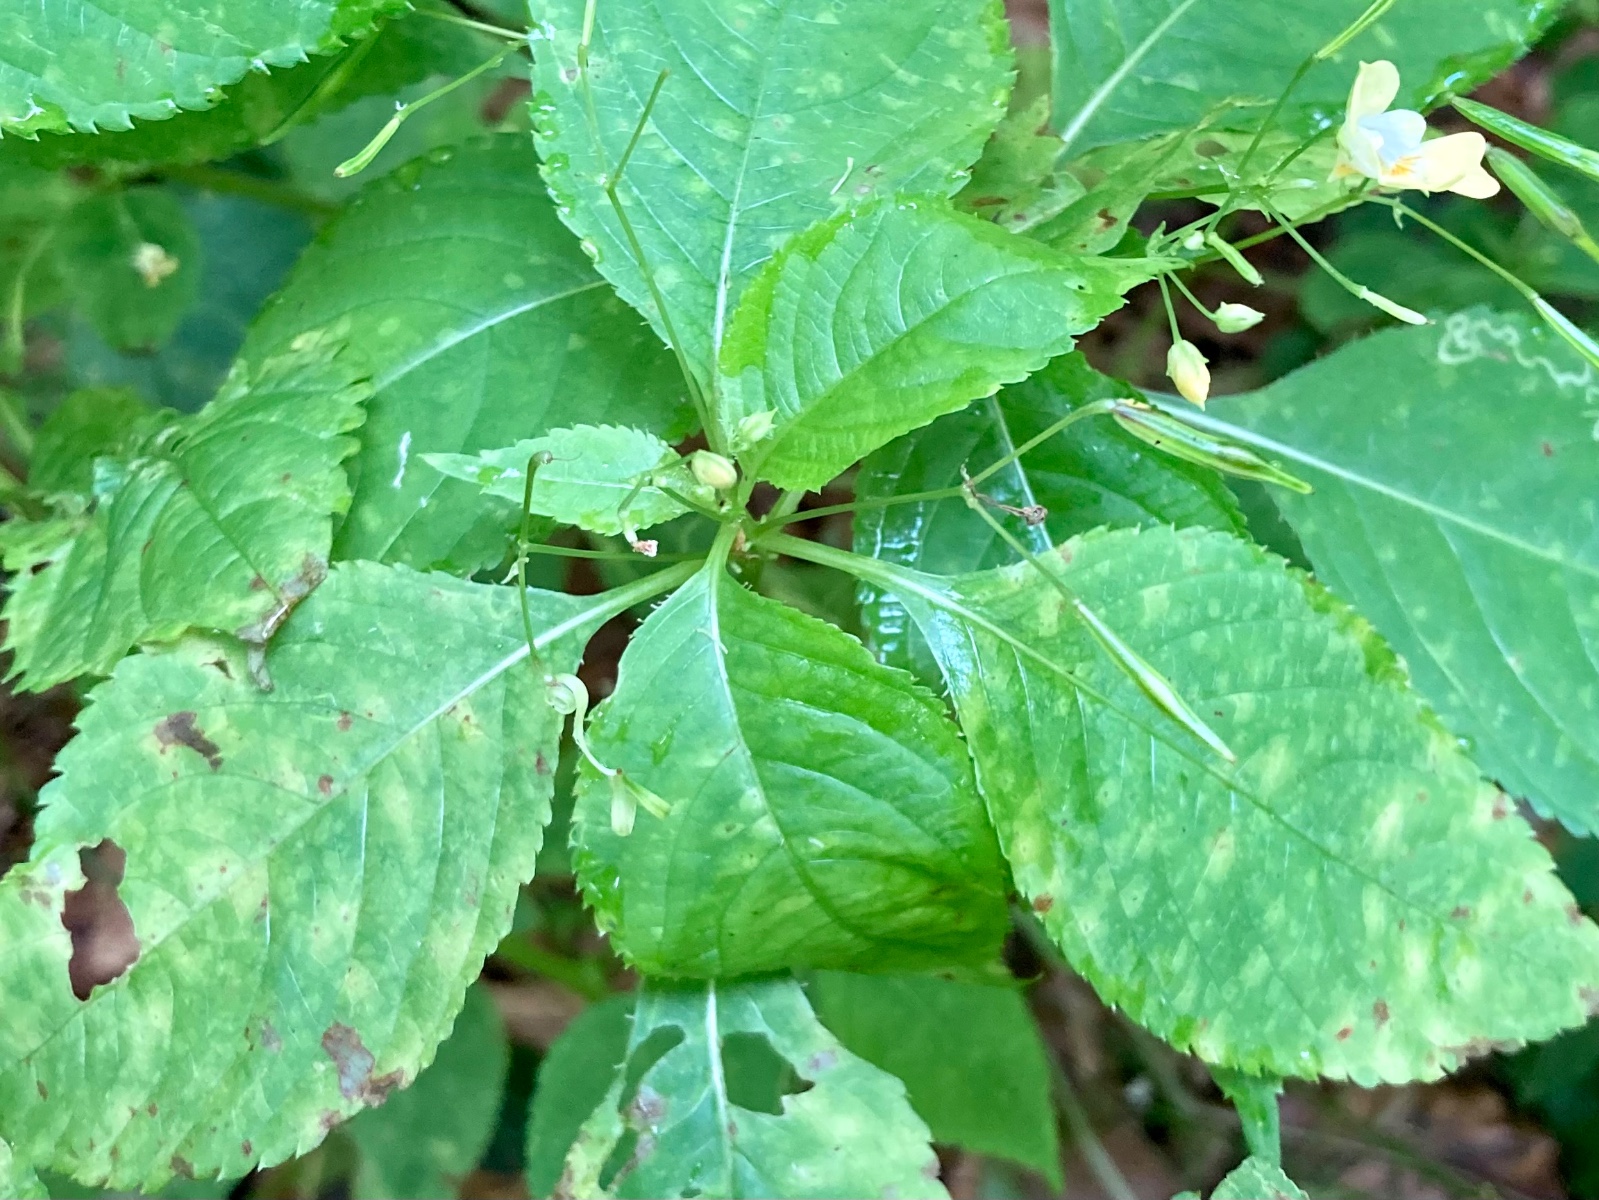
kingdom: Fungi
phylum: Basidiomycota
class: Pucciniomycetes
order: Pucciniales
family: Pucciniaceae
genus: Puccinia
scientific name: Puccinia komarovii
